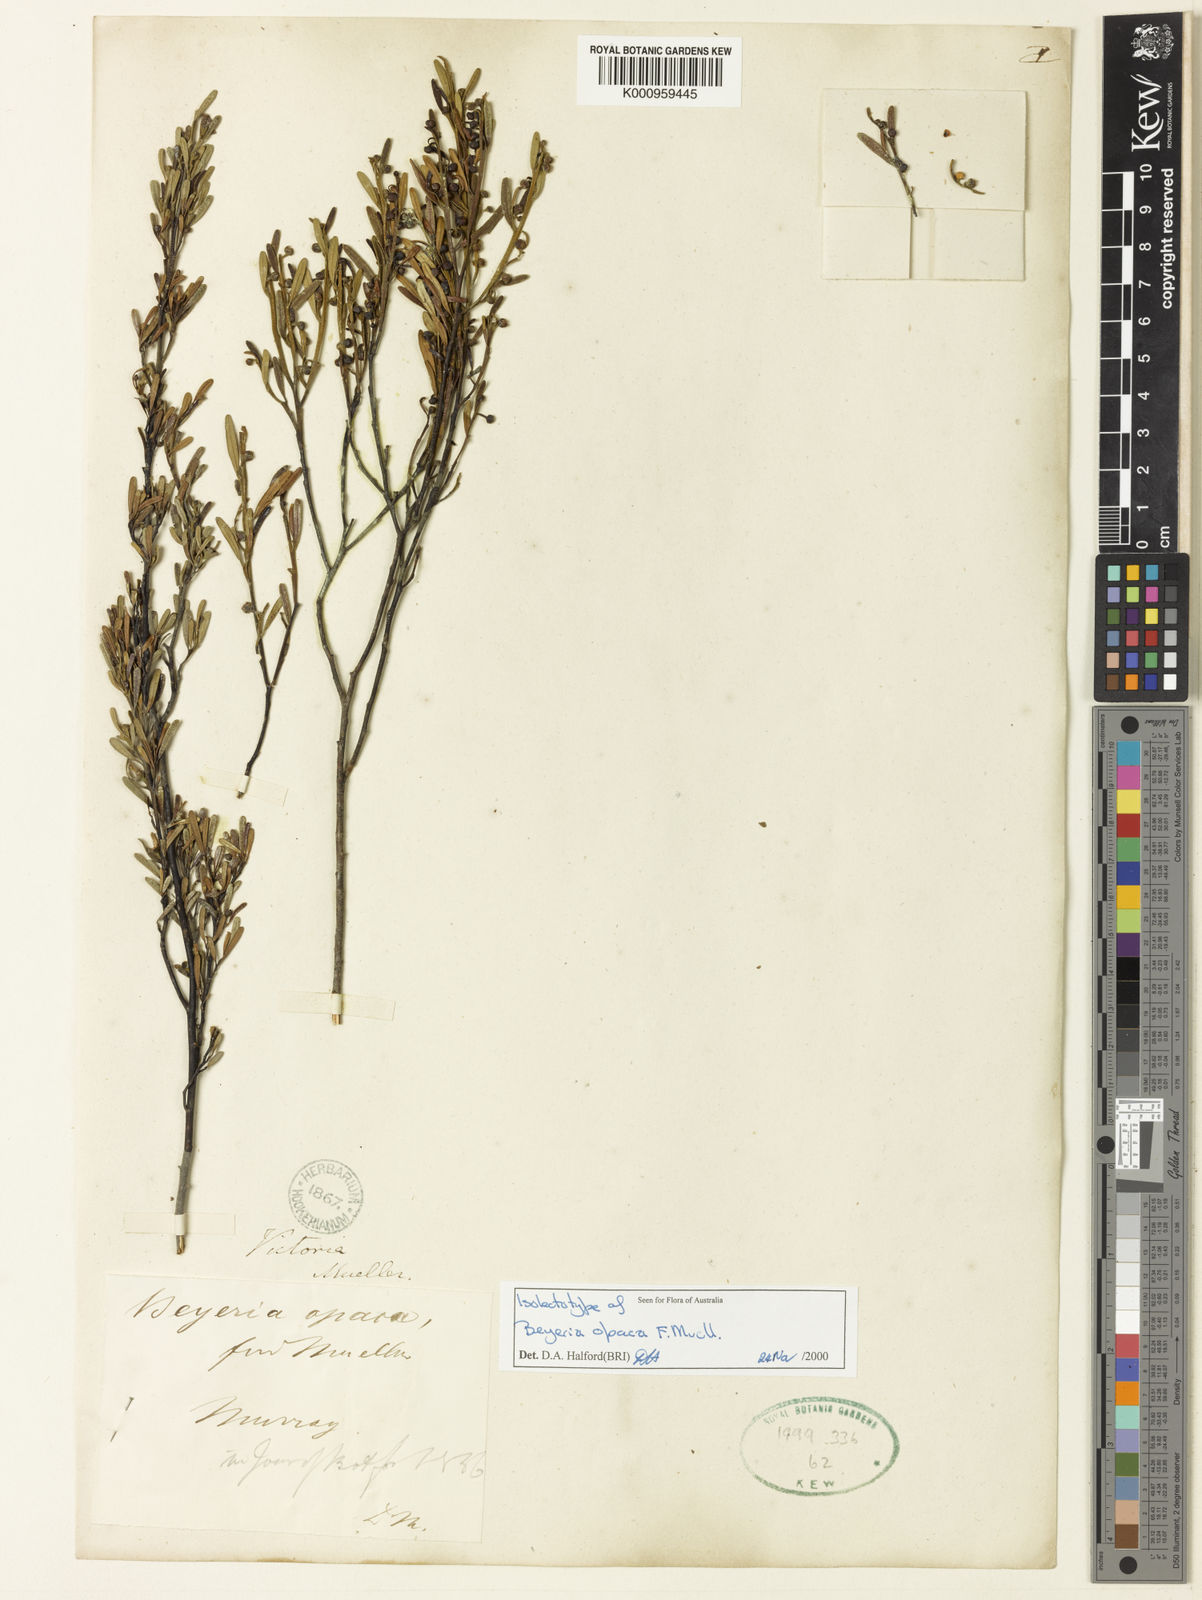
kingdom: Plantae
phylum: Tracheophyta
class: Magnoliopsida
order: Malpighiales
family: Euphorbiaceae
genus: Beyeria
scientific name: Beyeria opaca
